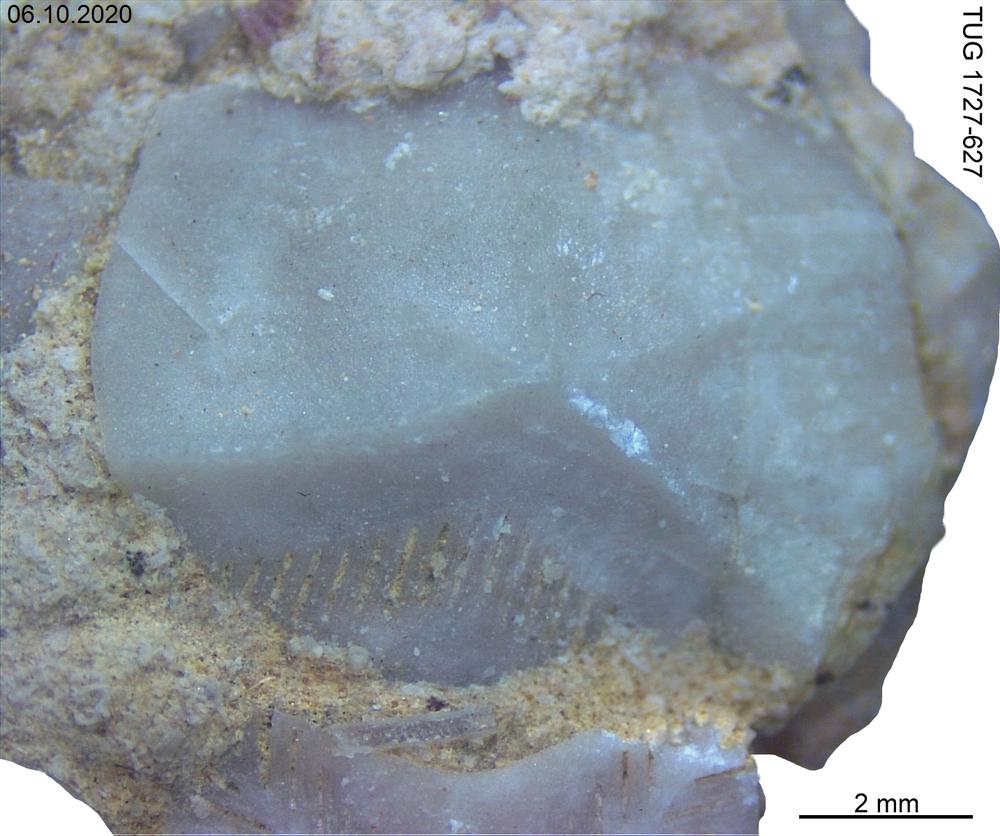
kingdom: Animalia
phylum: Echinodermata
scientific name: Echinodermata
